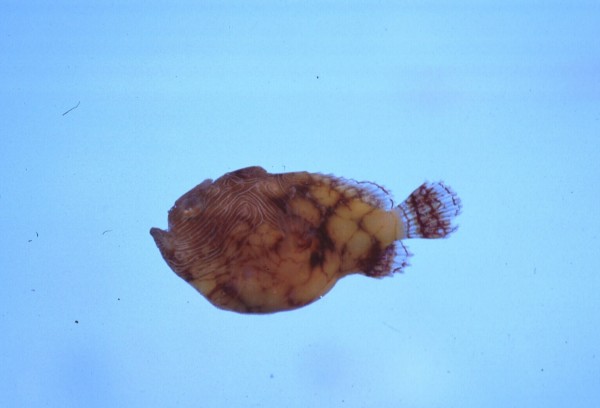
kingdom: Animalia
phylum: Chordata
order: Lophiiformes
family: Antennariidae
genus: Antennatus
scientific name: Antennatus tuberosus
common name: Reticulated frogfish
